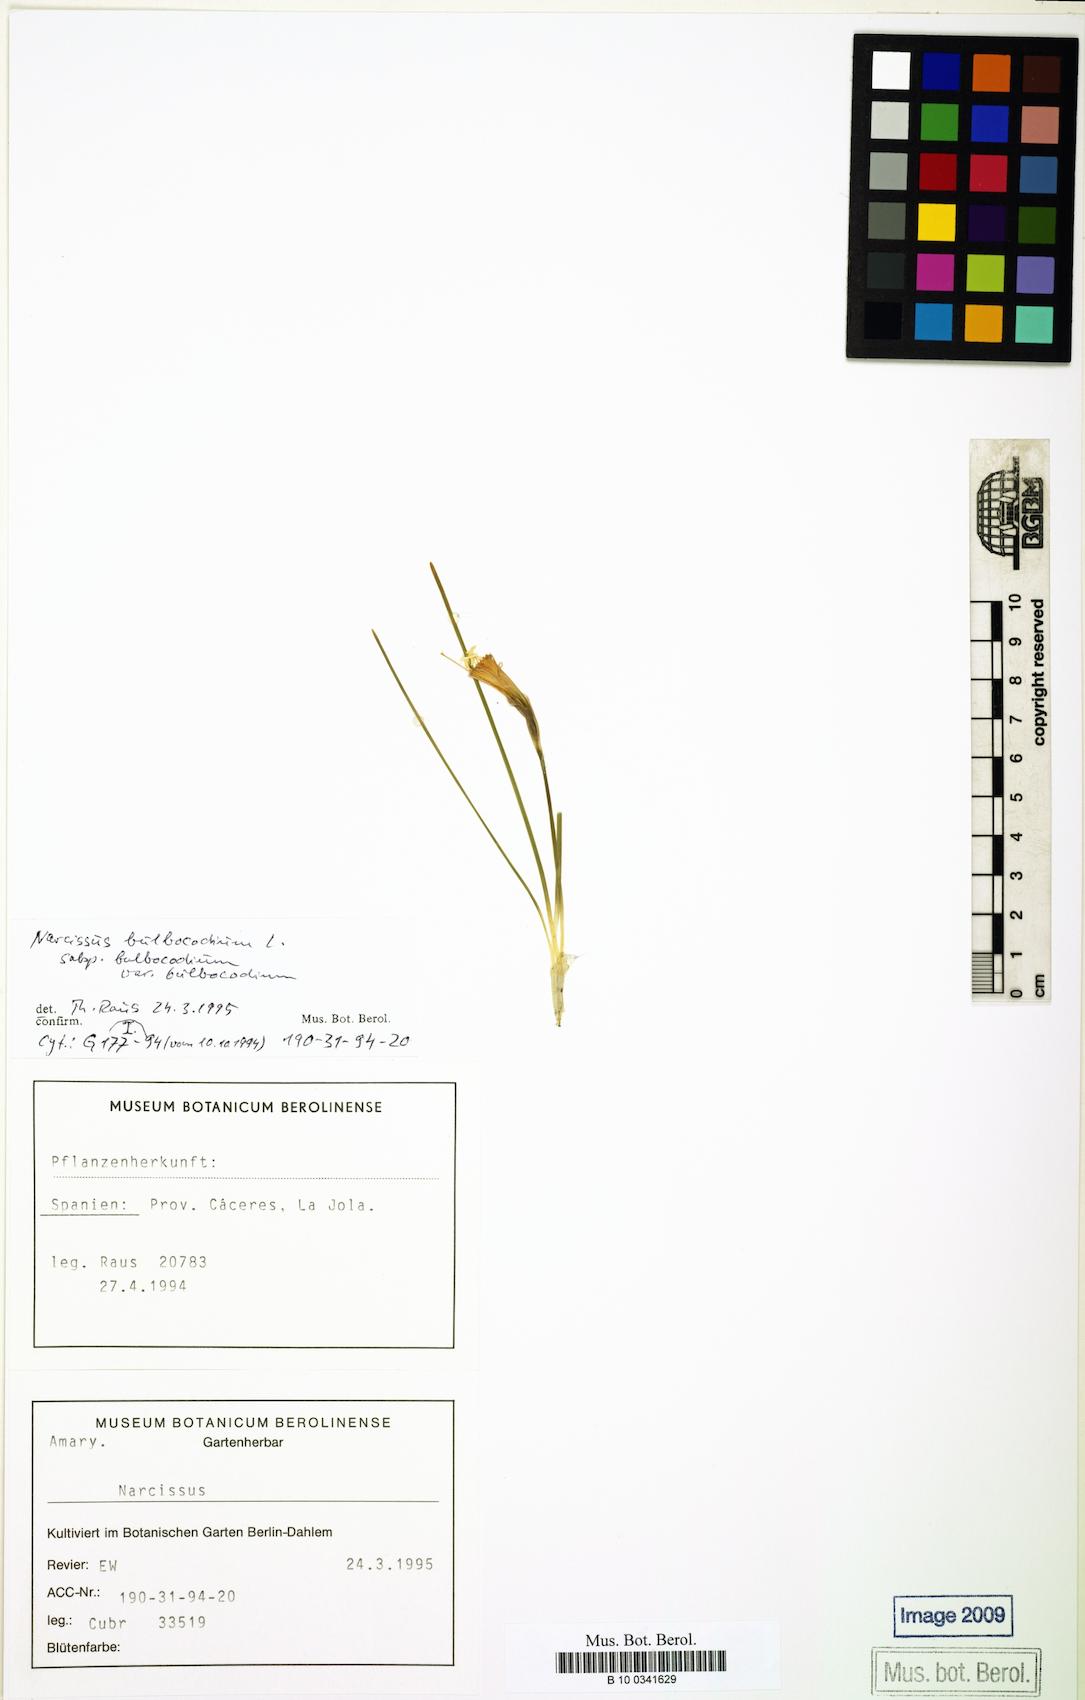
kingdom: Plantae
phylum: Tracheophyta
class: Liliopsida
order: Asparagales
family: Amaryllidaceae
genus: Narcissus
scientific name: Narcissus bulbocodium
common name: Hoop-petticoat daffodil
